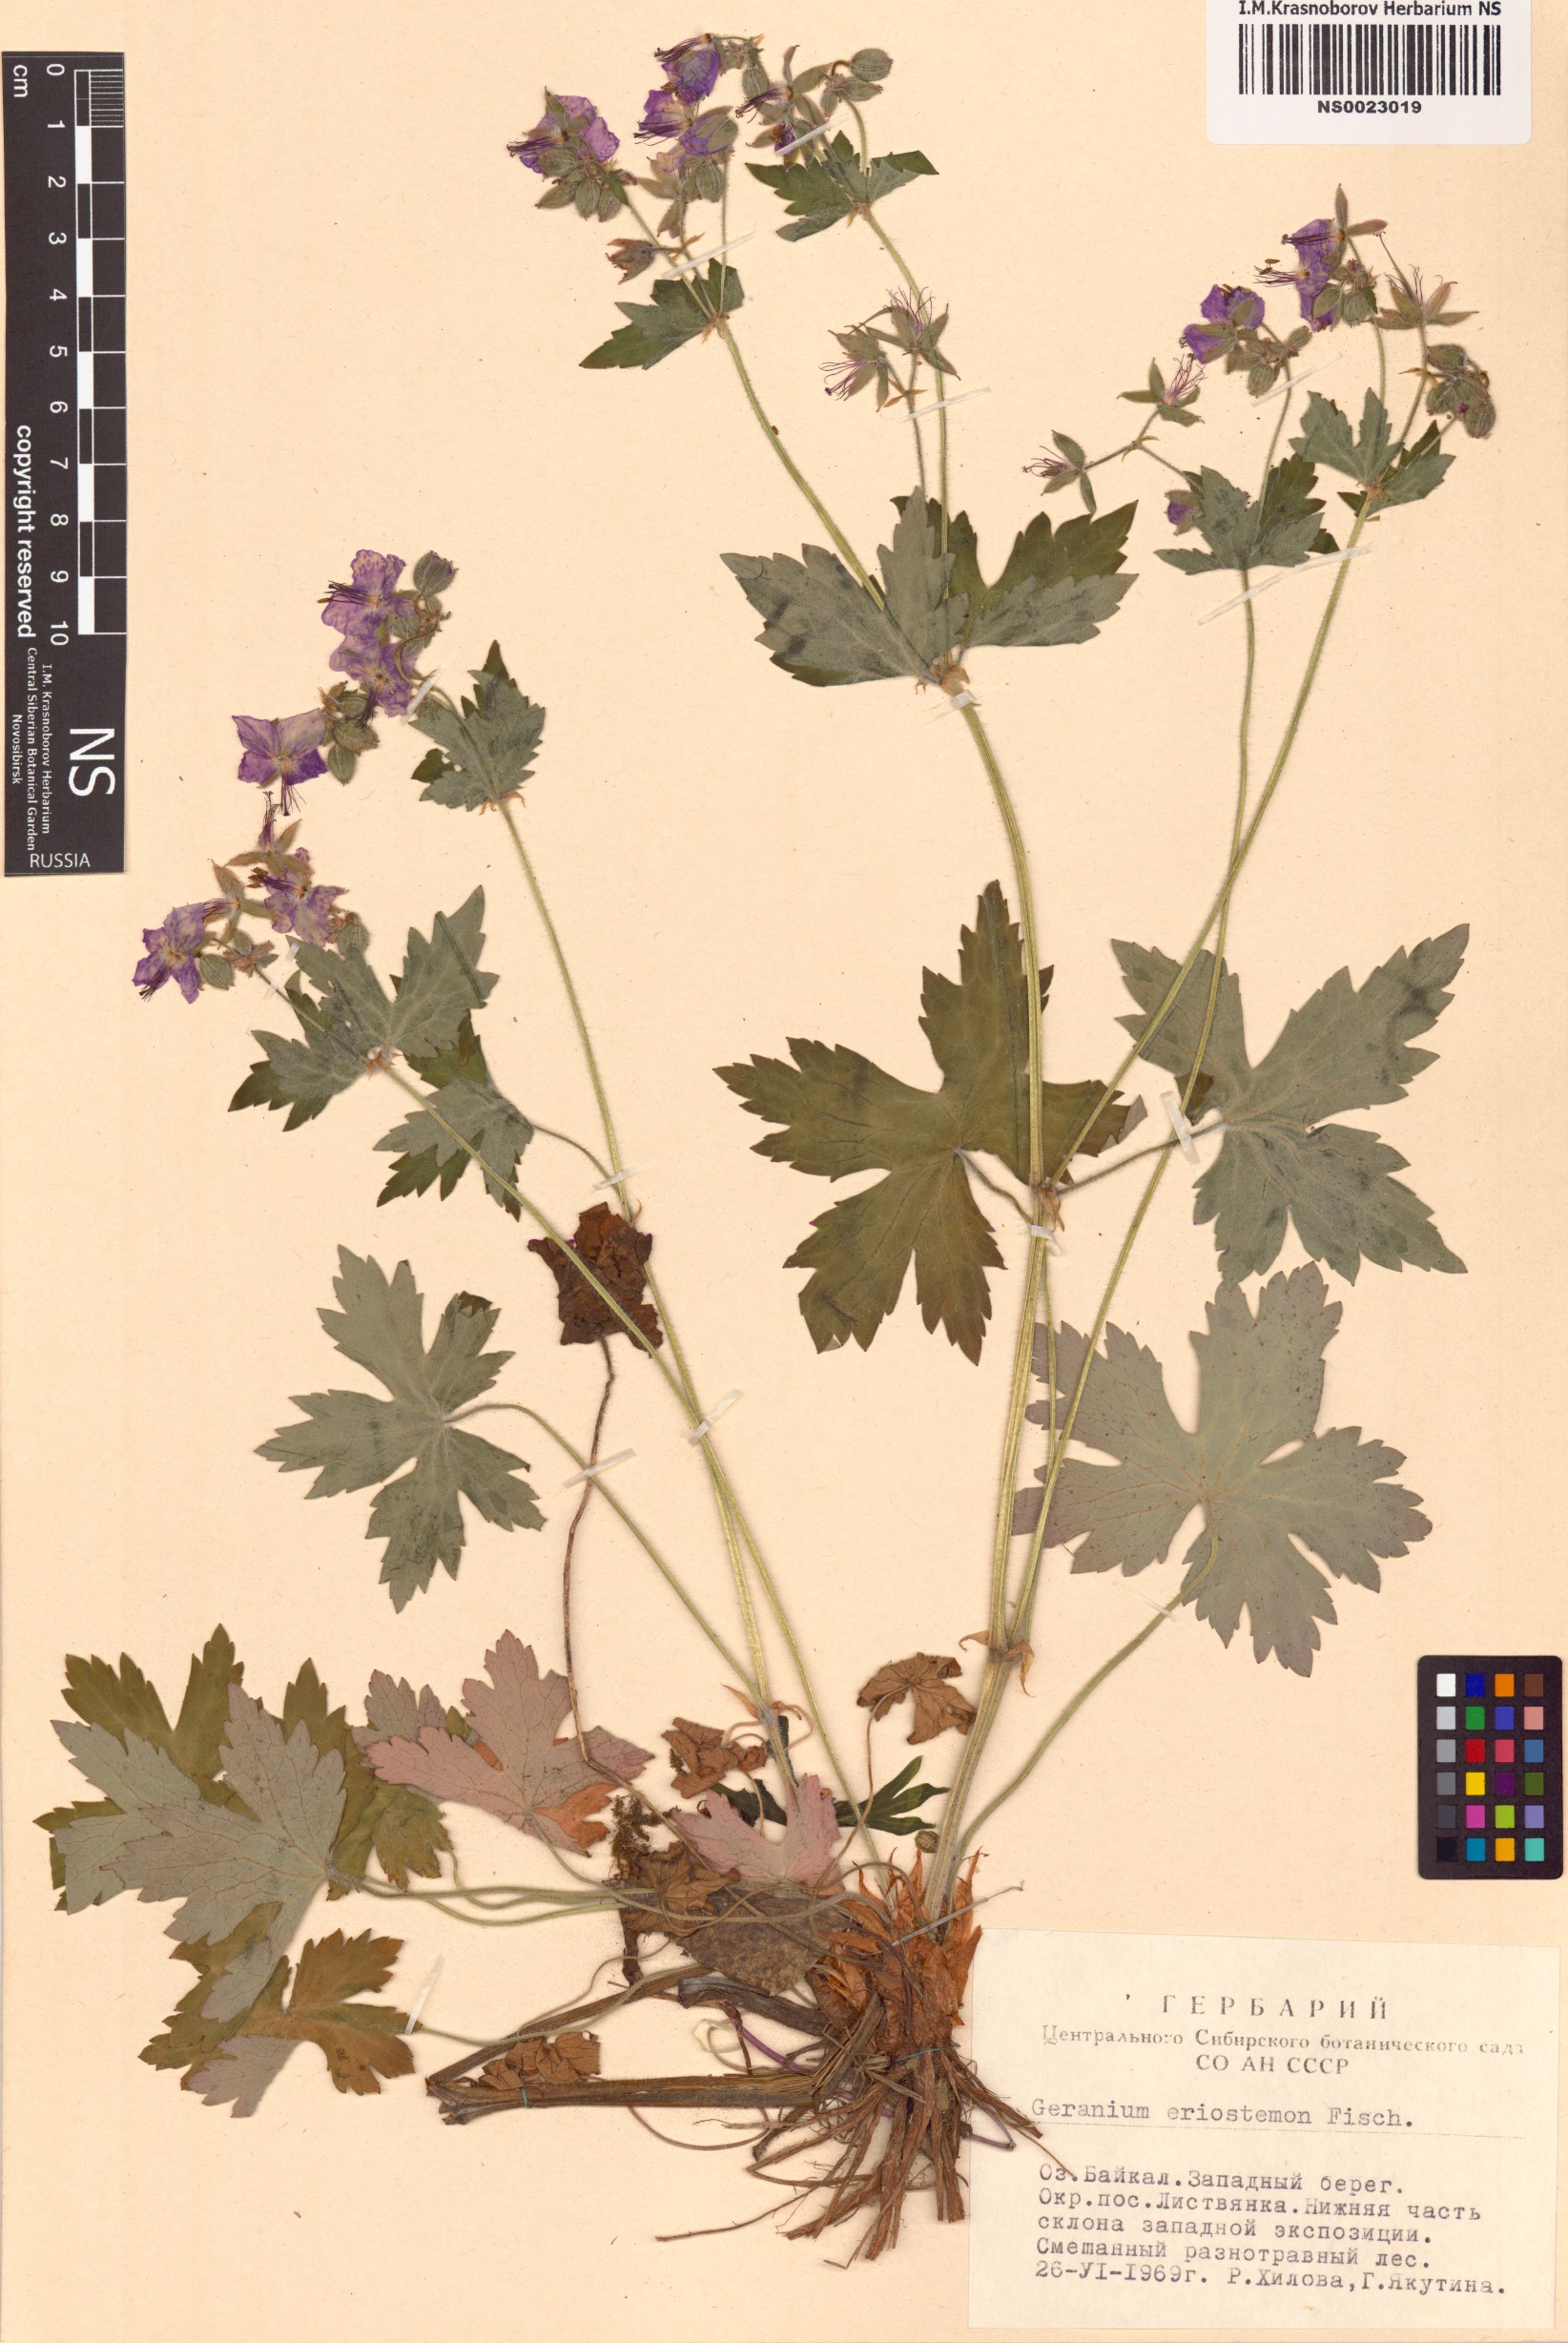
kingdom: Plantae
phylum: Tracheophyta
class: Magnoliopsida
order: Geraniales
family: Geraniaceae
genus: Geranium
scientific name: Geranium platyanthum
